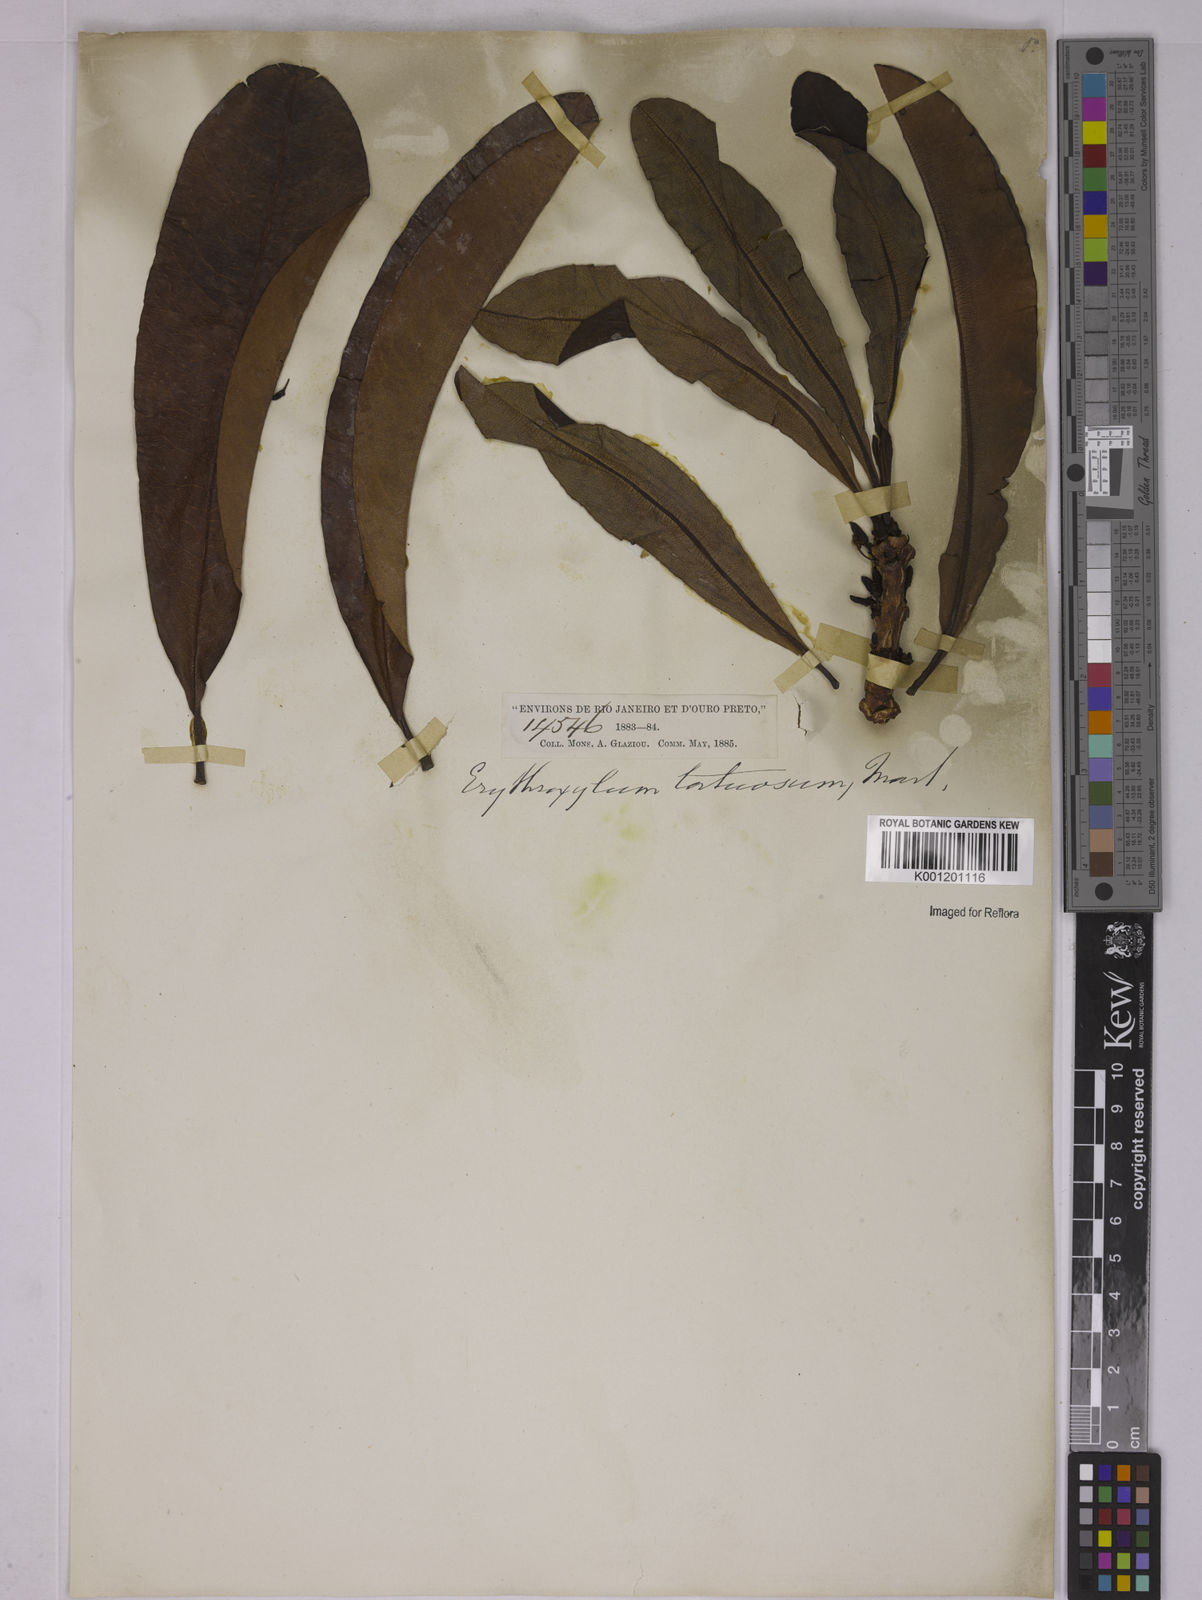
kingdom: Plantae
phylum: Tracheophyta
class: Magnoliopsida
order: Malpighiales
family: Erythroxylaceae
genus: Erythroxylum
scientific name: Erythroxylum tortuosum
